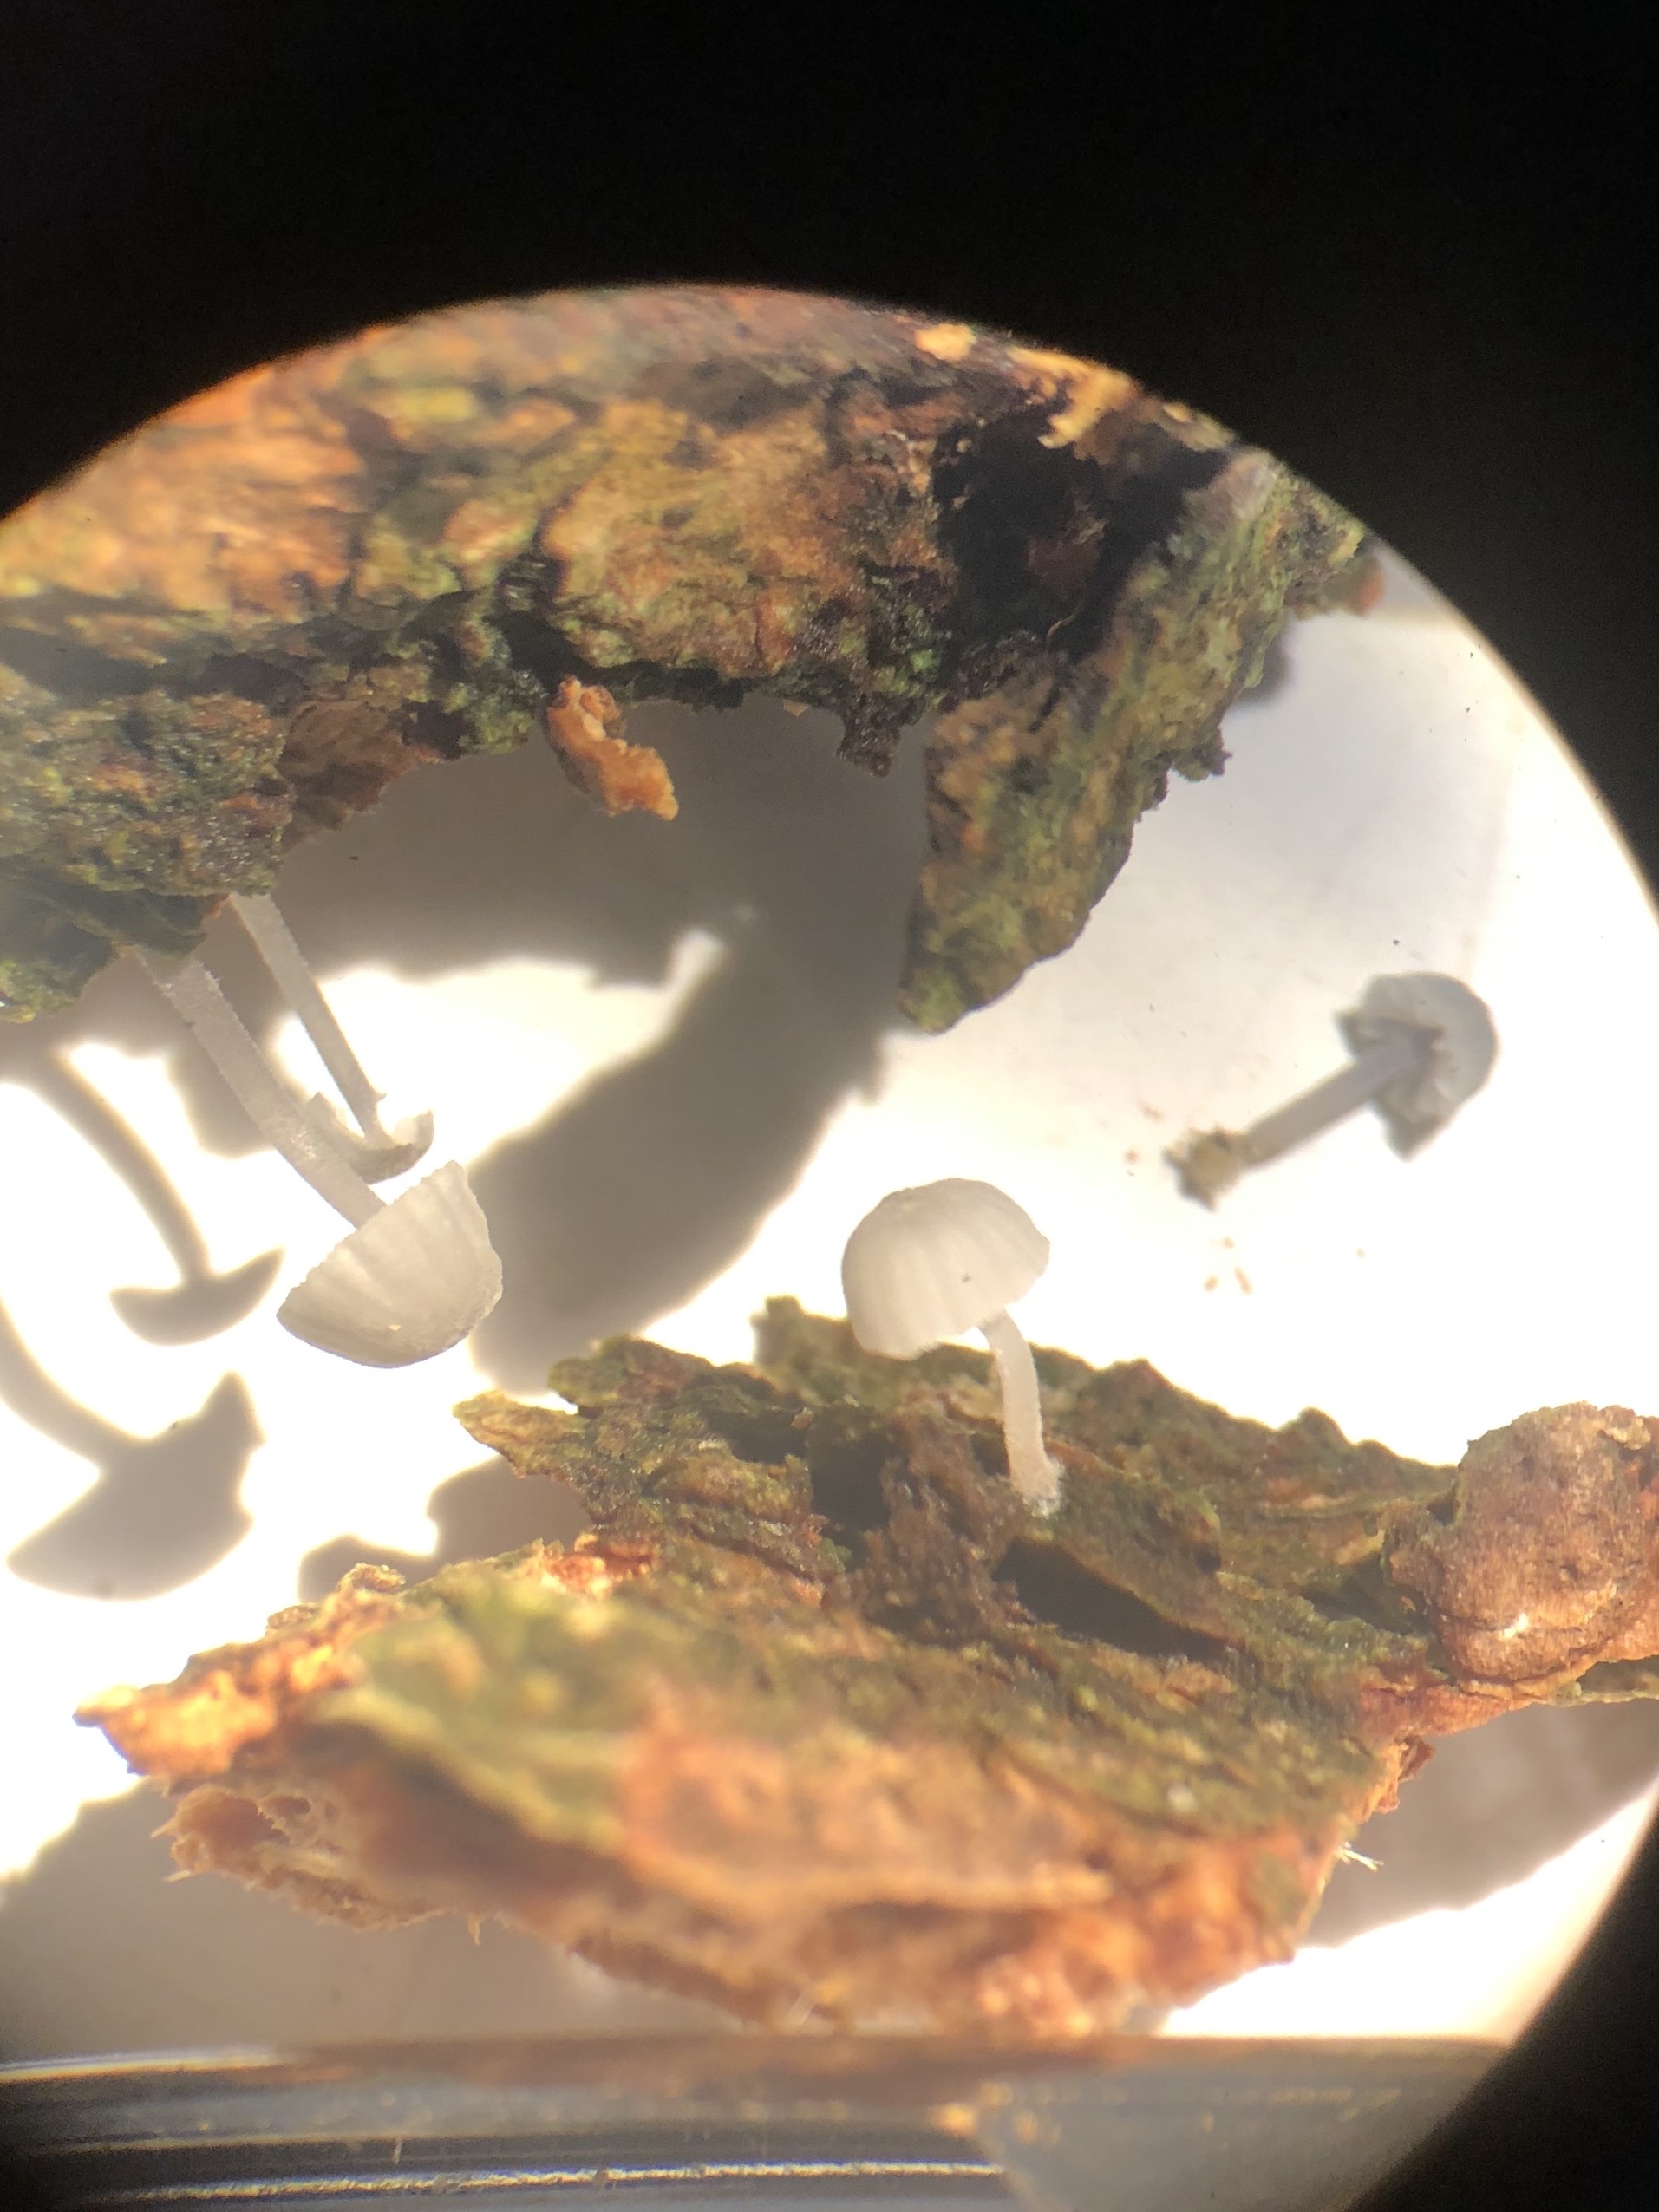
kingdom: Fungi
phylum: Basidiomycota
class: Agaricomycetes
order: Agaricales
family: Mycenaceae
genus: Mycena
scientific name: Mycena pseudocorticola
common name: gråblå bark-huesvamp
